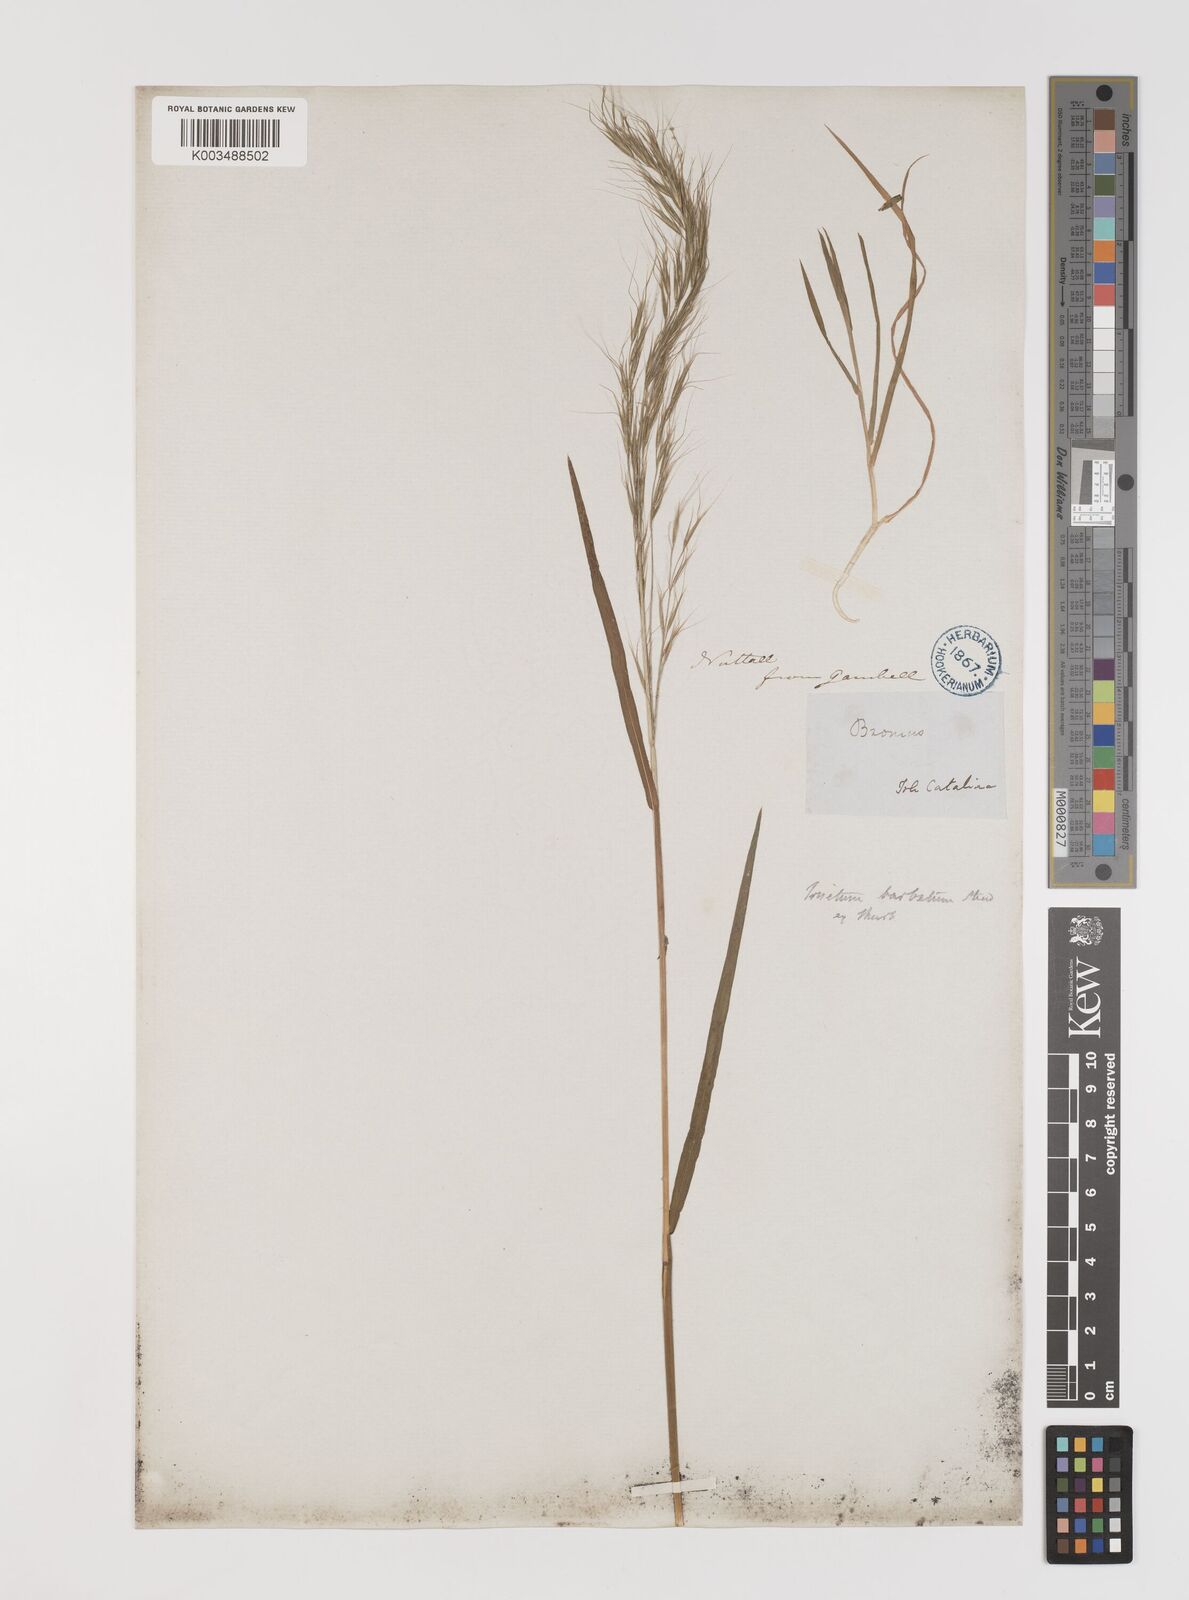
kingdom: Plantae
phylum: Tracheophyta
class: Liliopsida
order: Poales
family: Poaceae
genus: Bromus
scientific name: Bromus berteroanus
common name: Chilean chess
